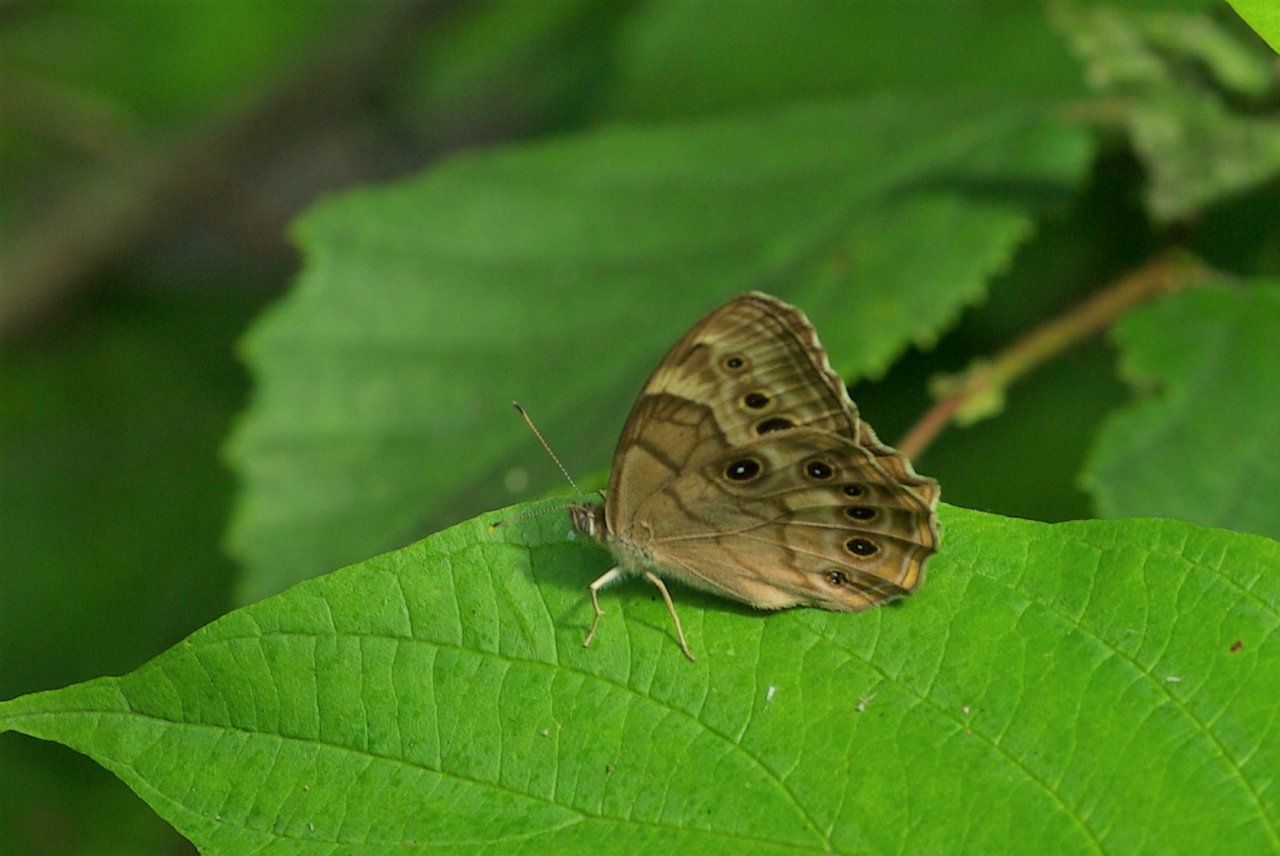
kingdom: Animalia
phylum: Arthropoda
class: Insecta
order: Lepidoptera
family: Nymphalidae
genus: Lethe
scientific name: Lethe anthedon
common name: Northern Pearly-Eye
